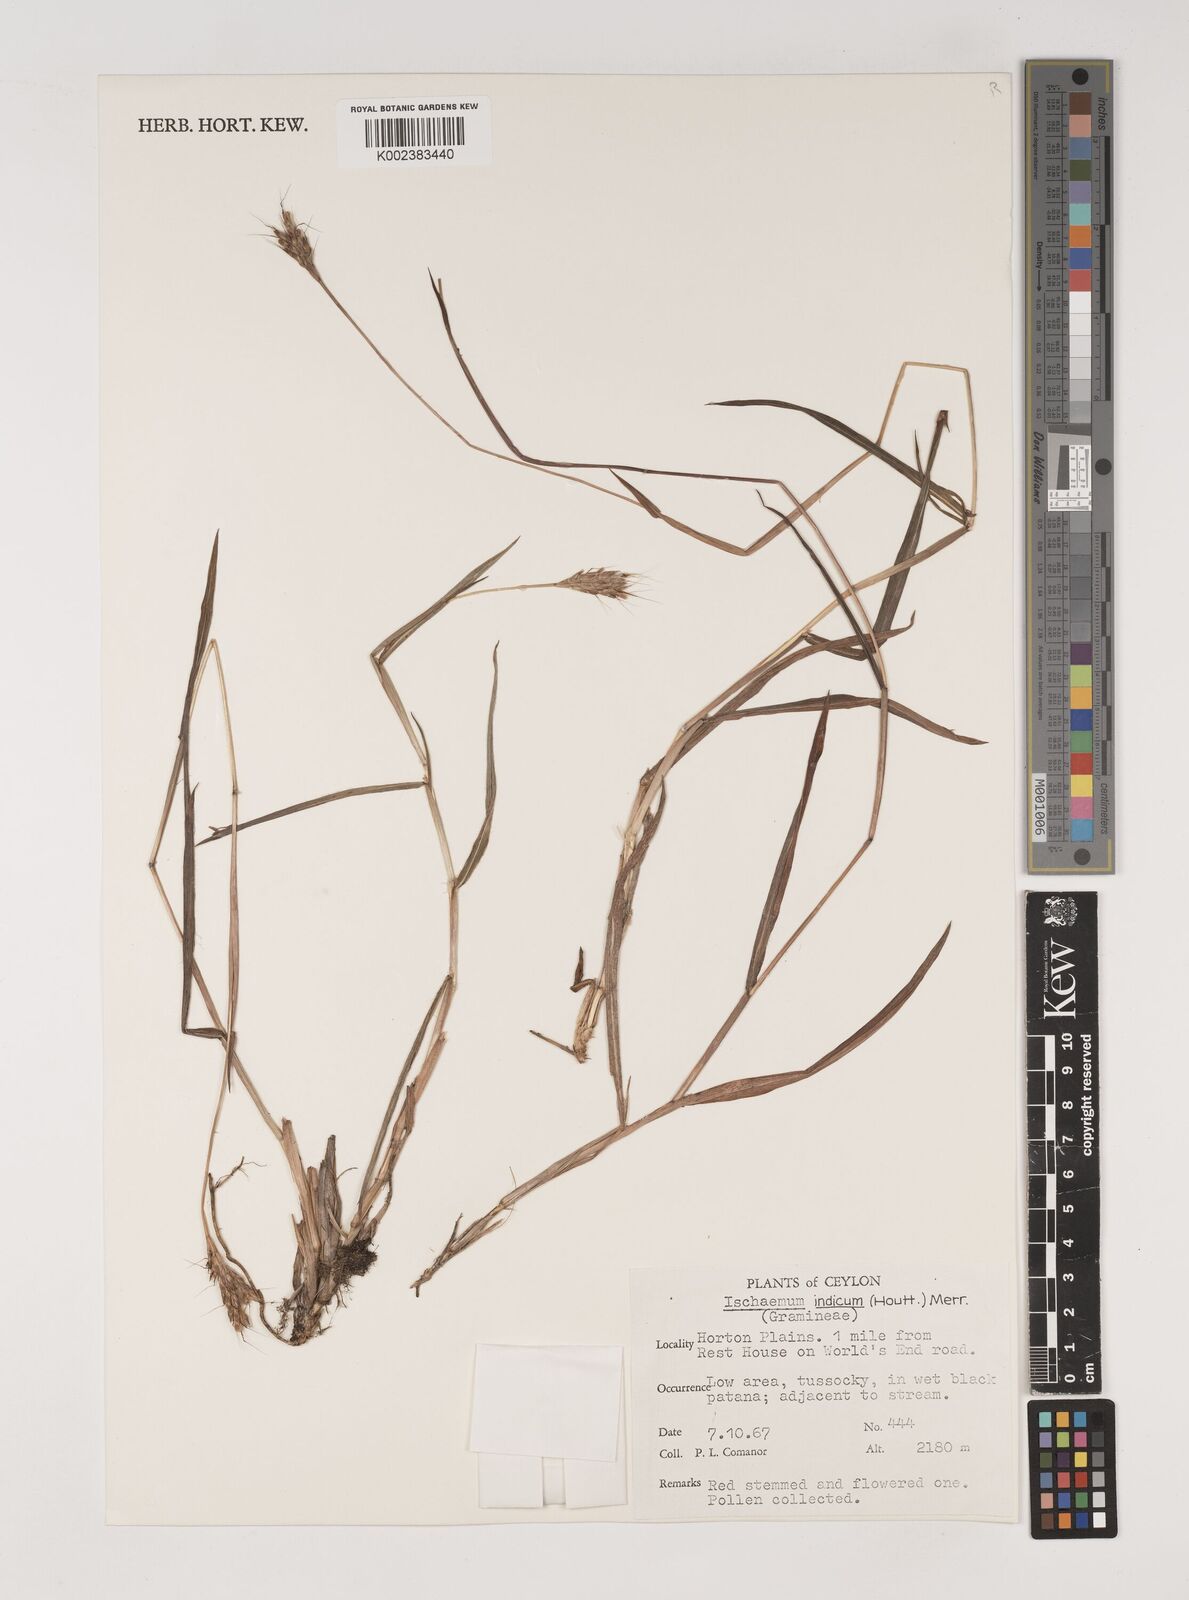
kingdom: Plantae
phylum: Tracheophyta
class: Liliopsida
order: Poales
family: Poaceae
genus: Polytrias
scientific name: Polytrias indica
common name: Indian murainagrass
